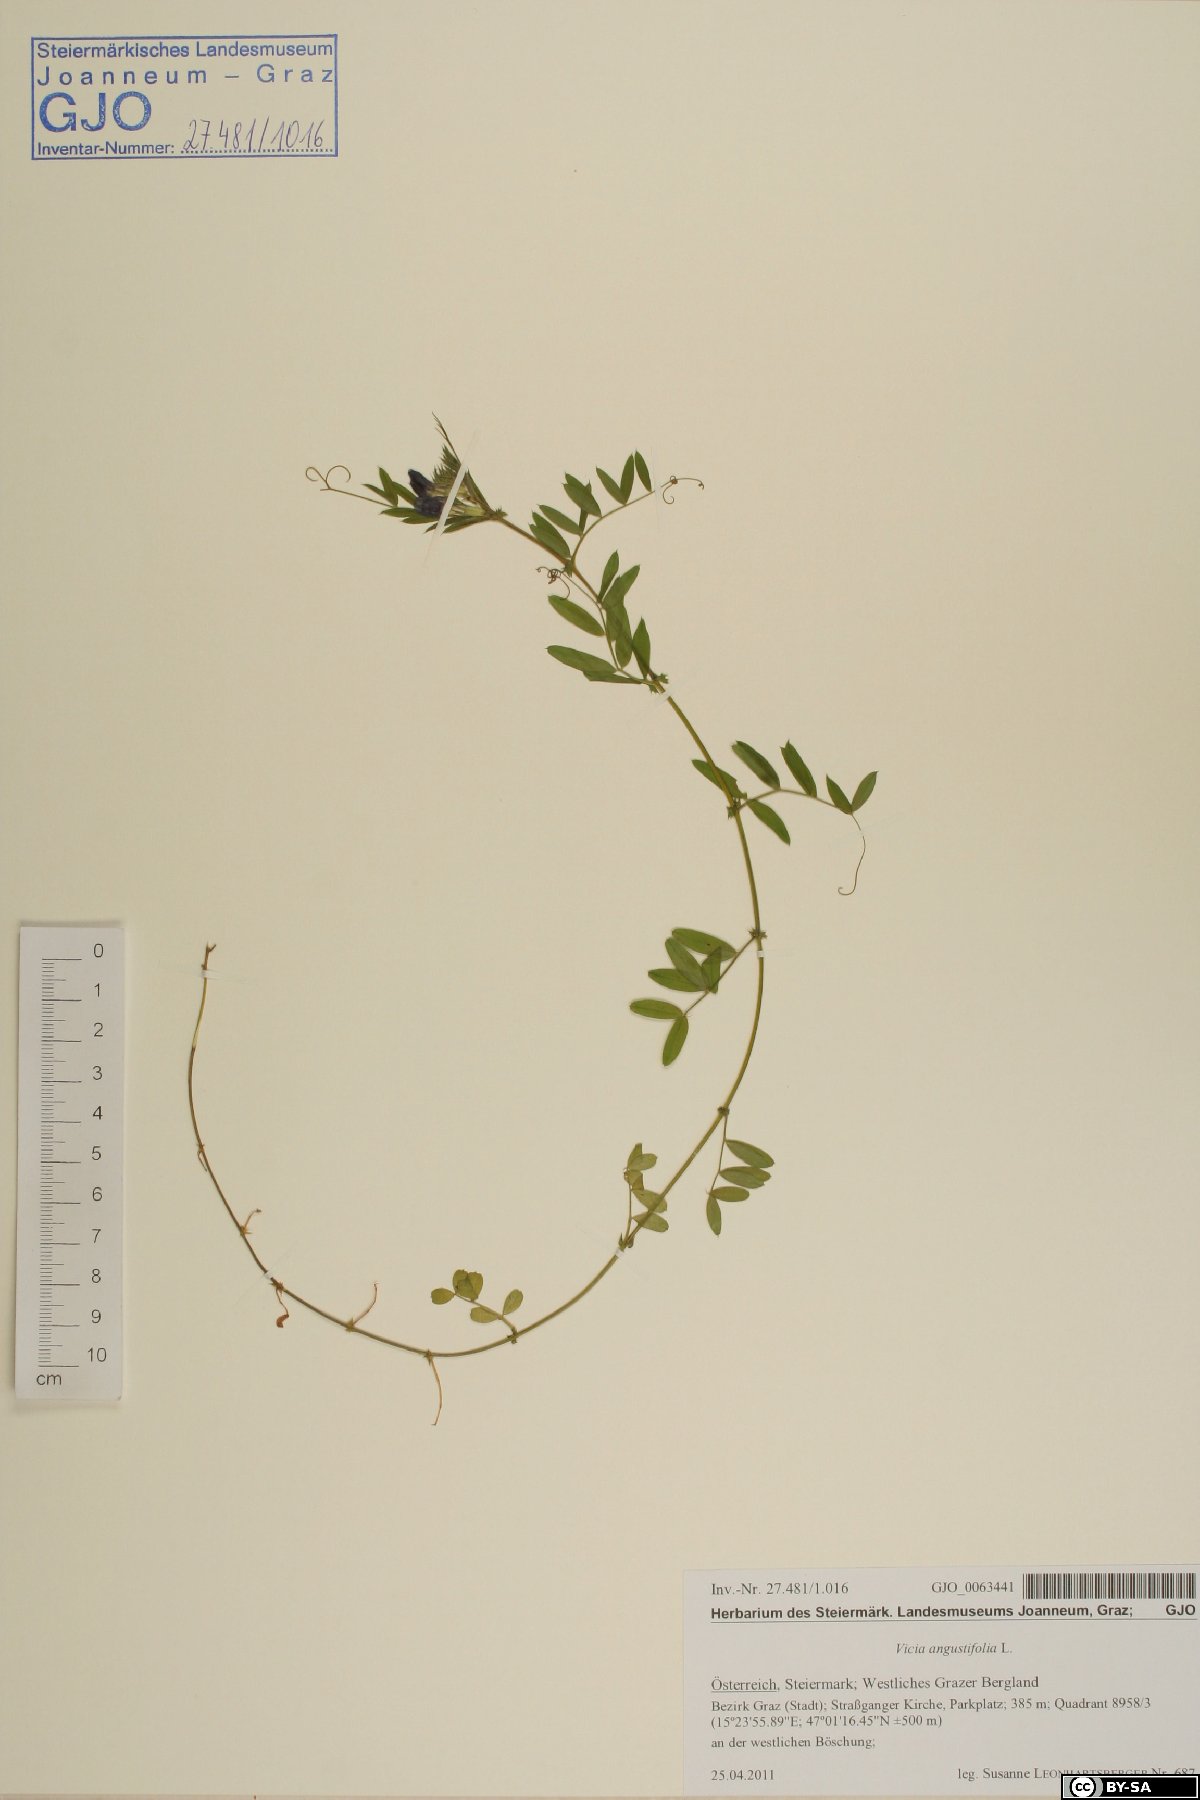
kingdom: Plantae
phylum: Tracheophyta
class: Magnoliopsida
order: Fabales
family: Fabaceae
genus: Vicia
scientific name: Vicia sativa
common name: Garden vetch
